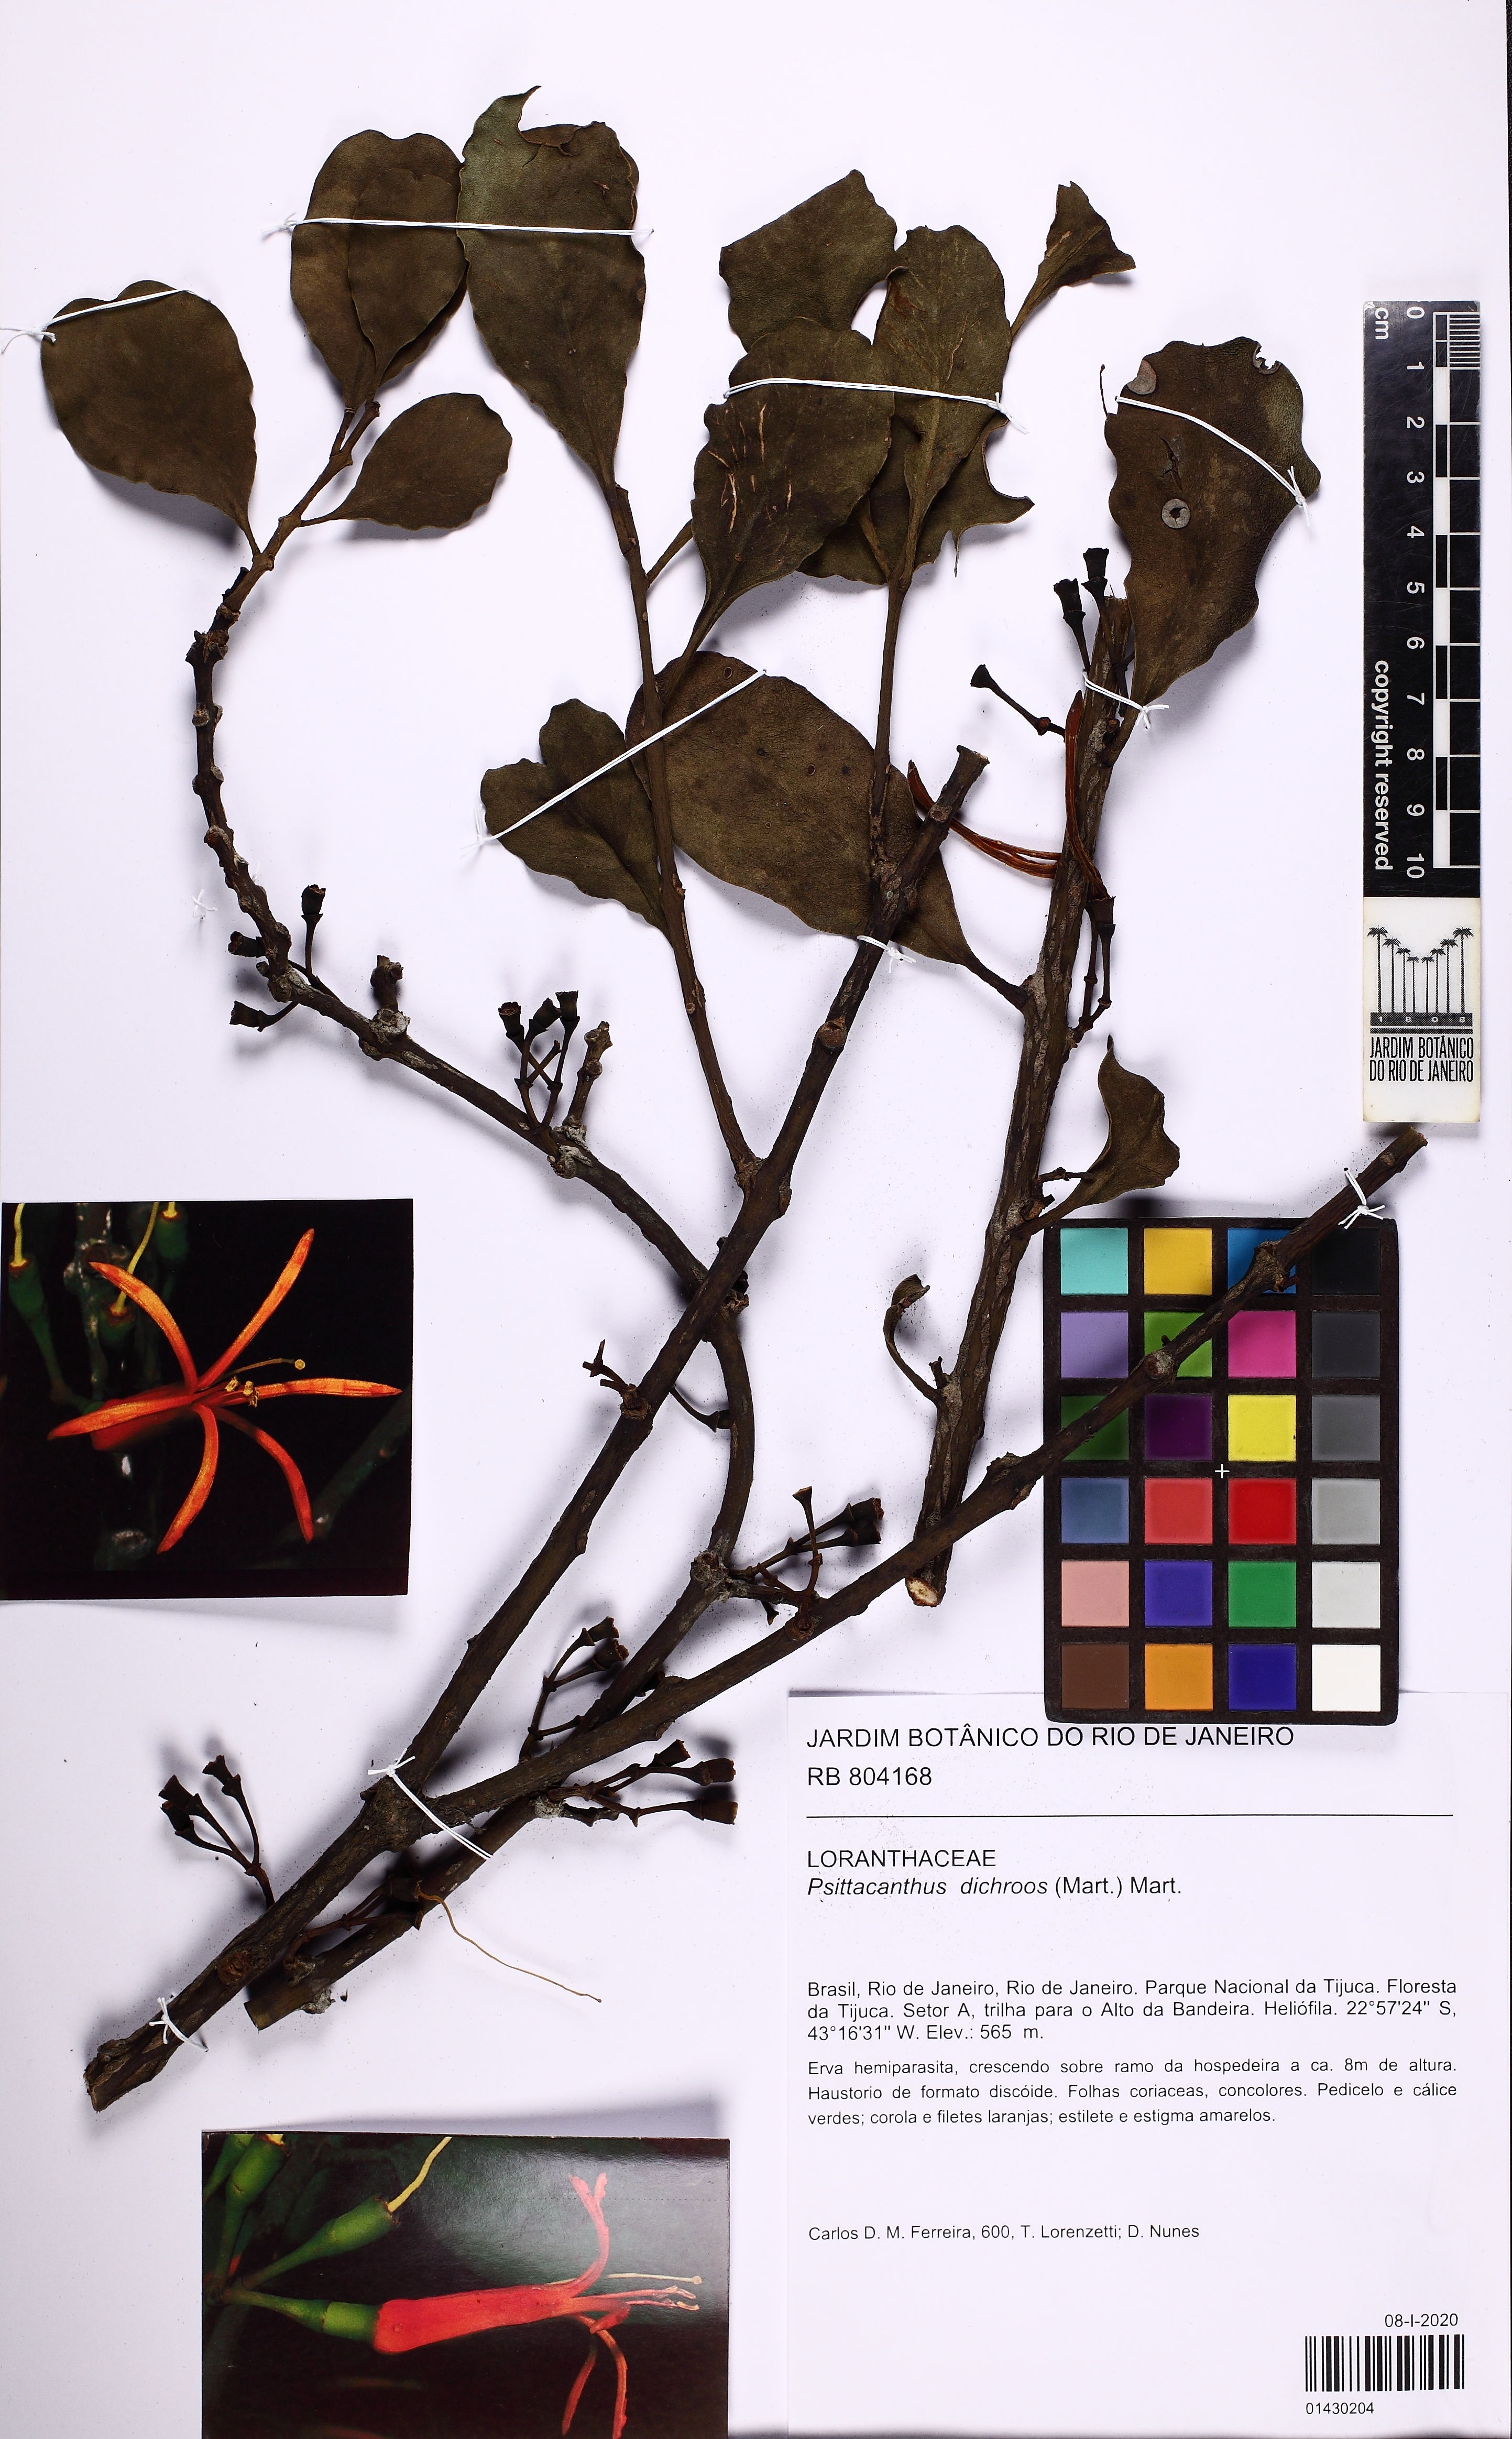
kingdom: Plantae
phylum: Tracheophyta
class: Magnoliopsida
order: Santalales
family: Loranthaceae
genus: Psittacanthus
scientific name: Psittacanthus dichroos
